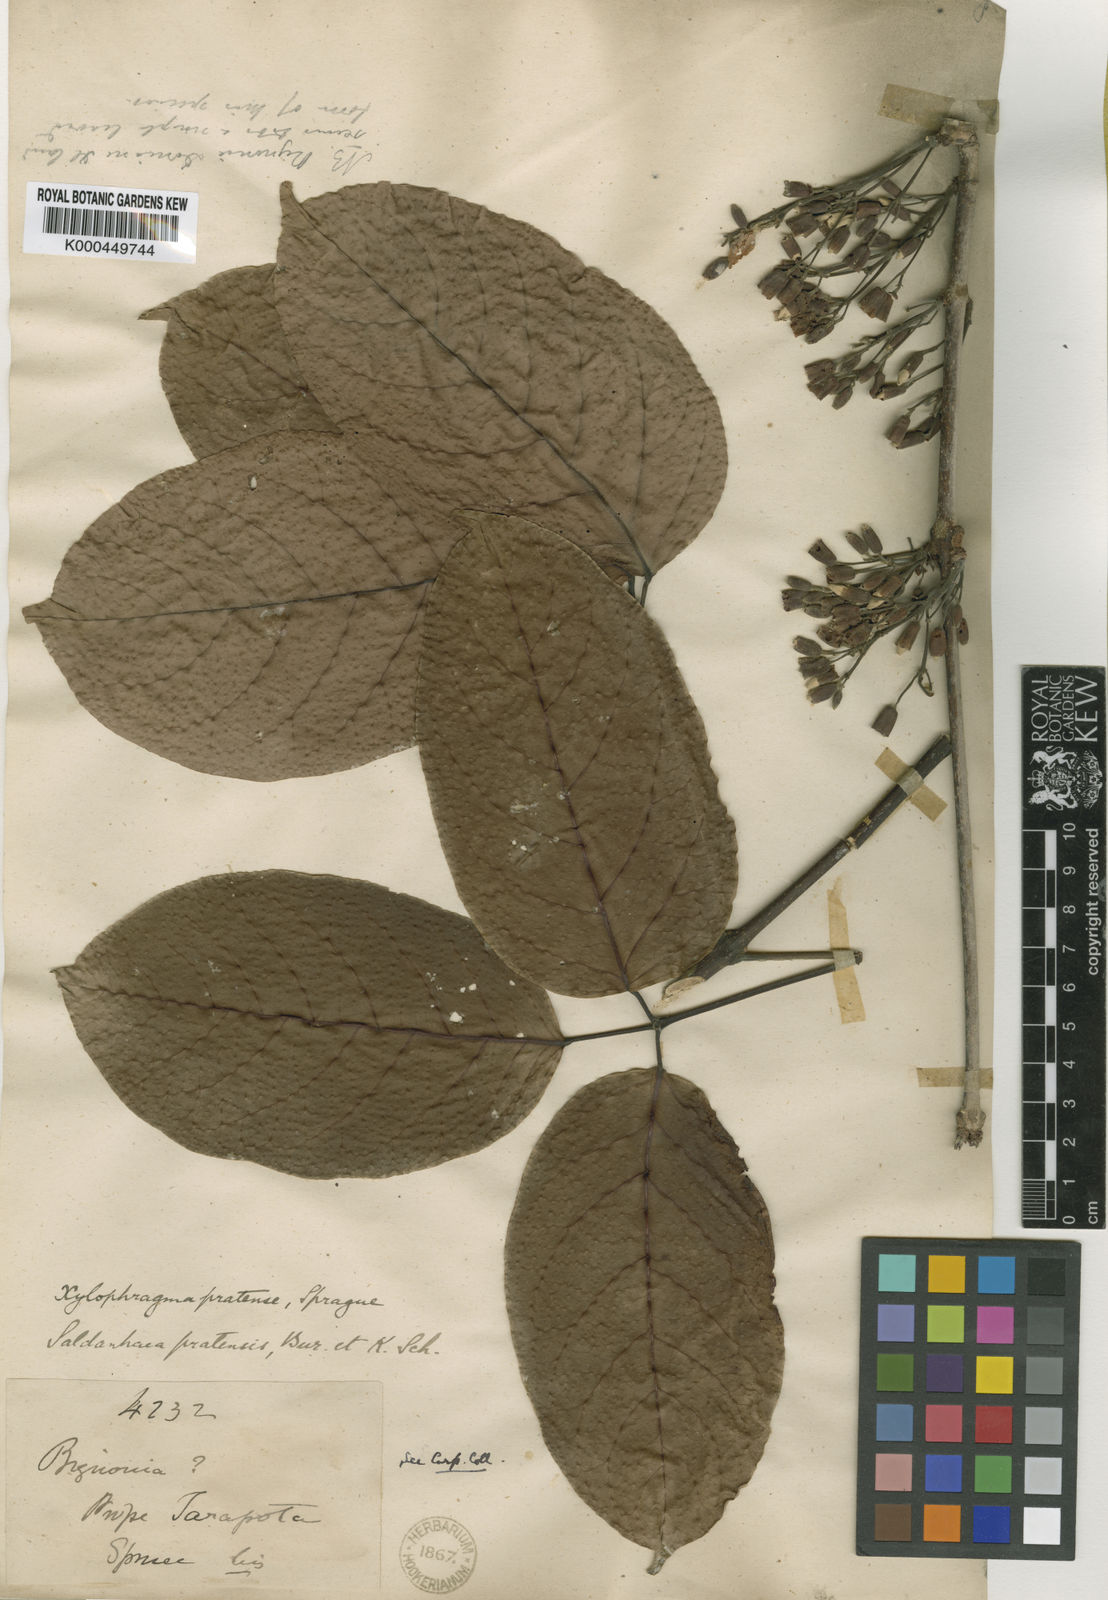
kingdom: Plantae
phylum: Tracheophyta
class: Magnoliopsida
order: Lamiales
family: Bignoniaceae
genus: Xylophragma
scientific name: Xylophragma pratense
